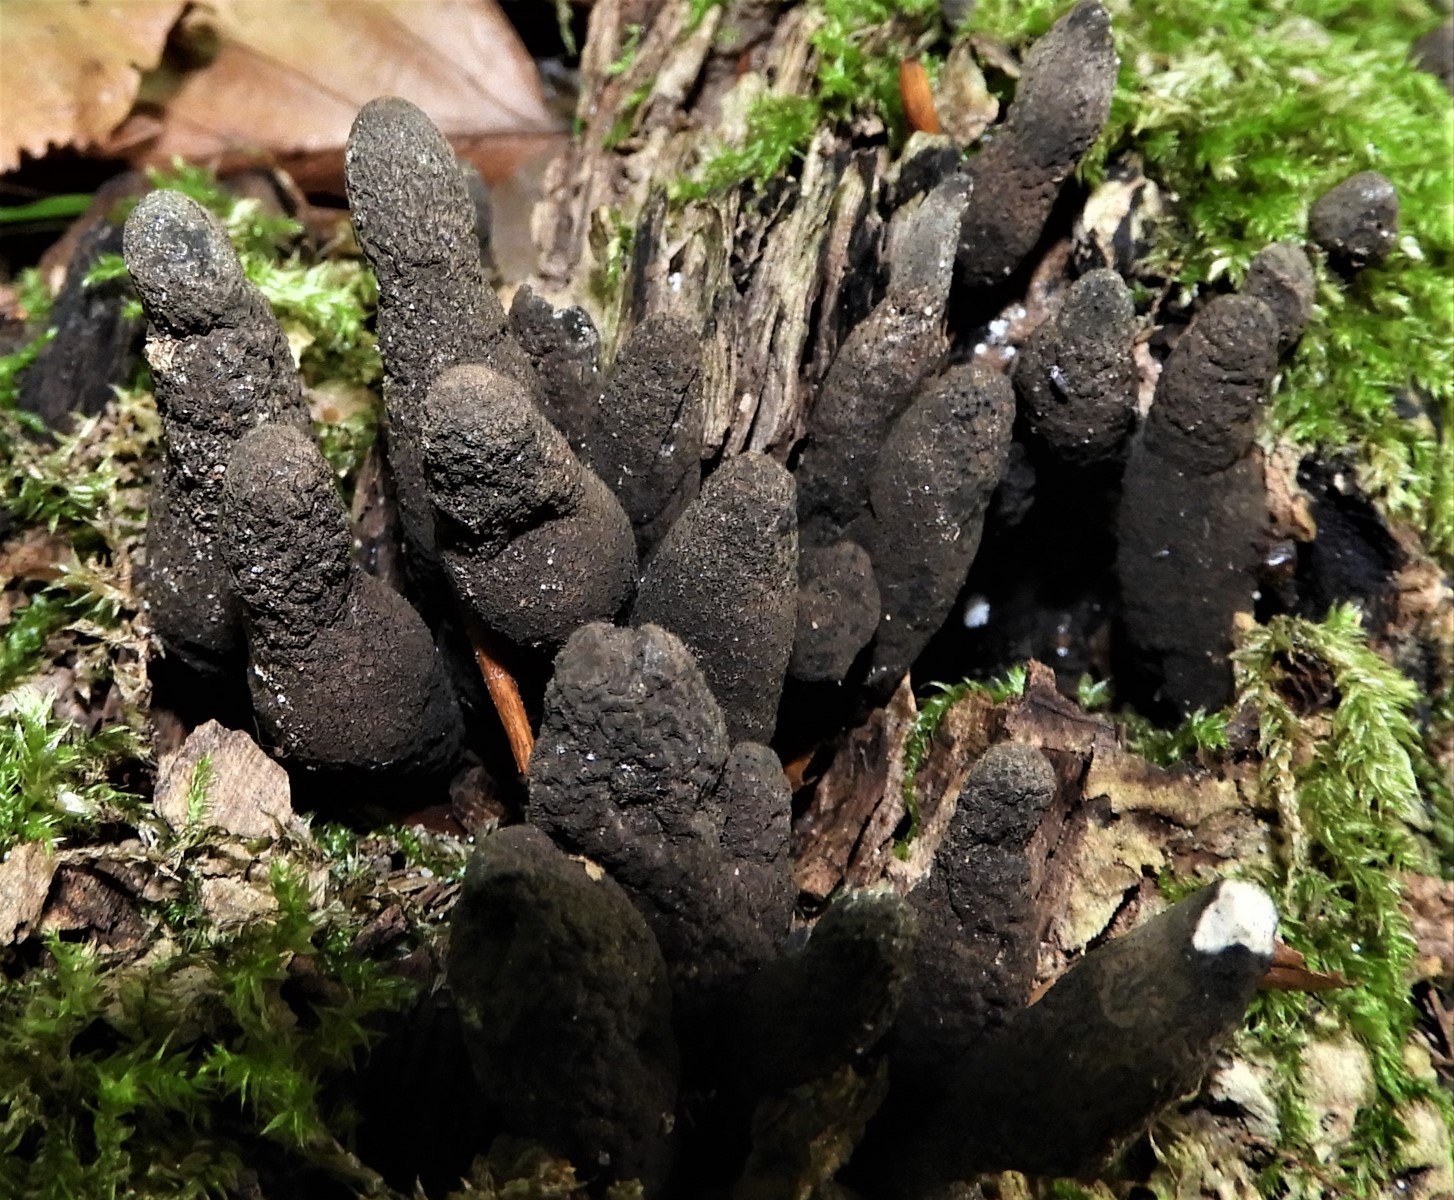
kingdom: Fungi
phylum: Ascomycota
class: Sordariomycetes
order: Xylariales
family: Xylariaceae
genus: Xylaria
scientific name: Xylaria polymorpha
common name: kølle-stødsvamp
